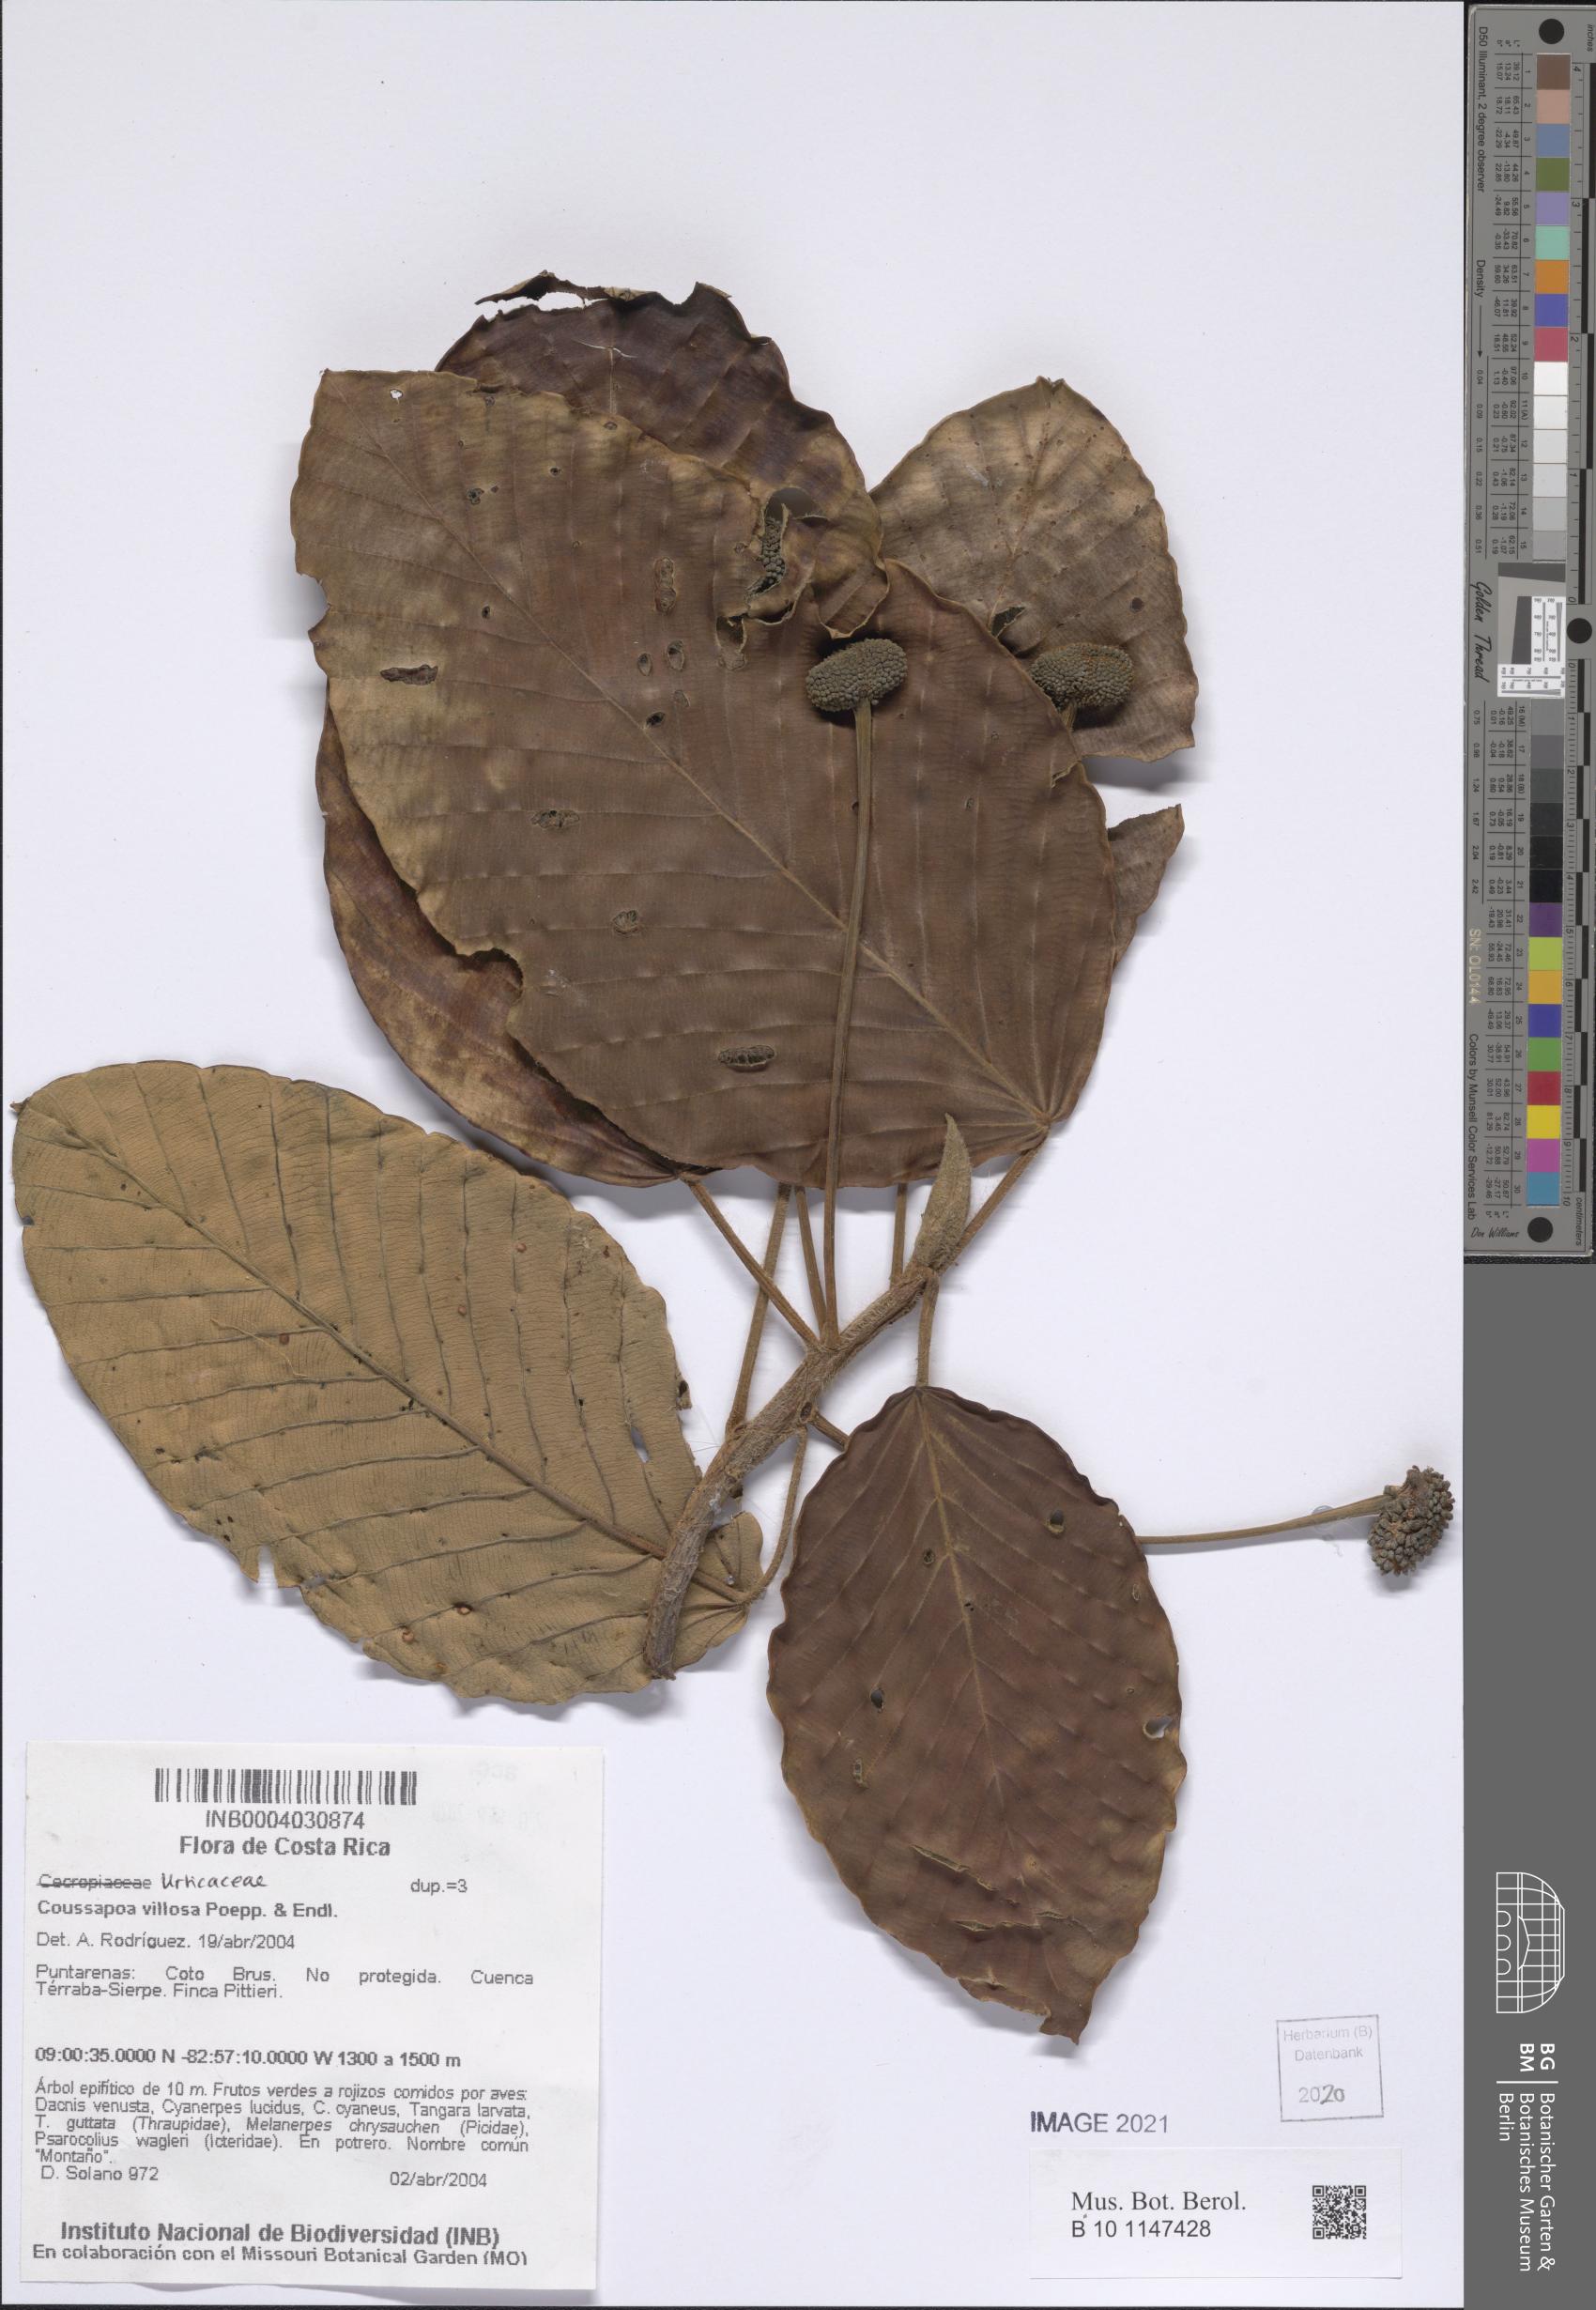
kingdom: Plantae
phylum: Tracheophyta
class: Magnoliopsida
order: Rosales
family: Urticaceae
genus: Coussapoa
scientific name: Coussapoa villosa
